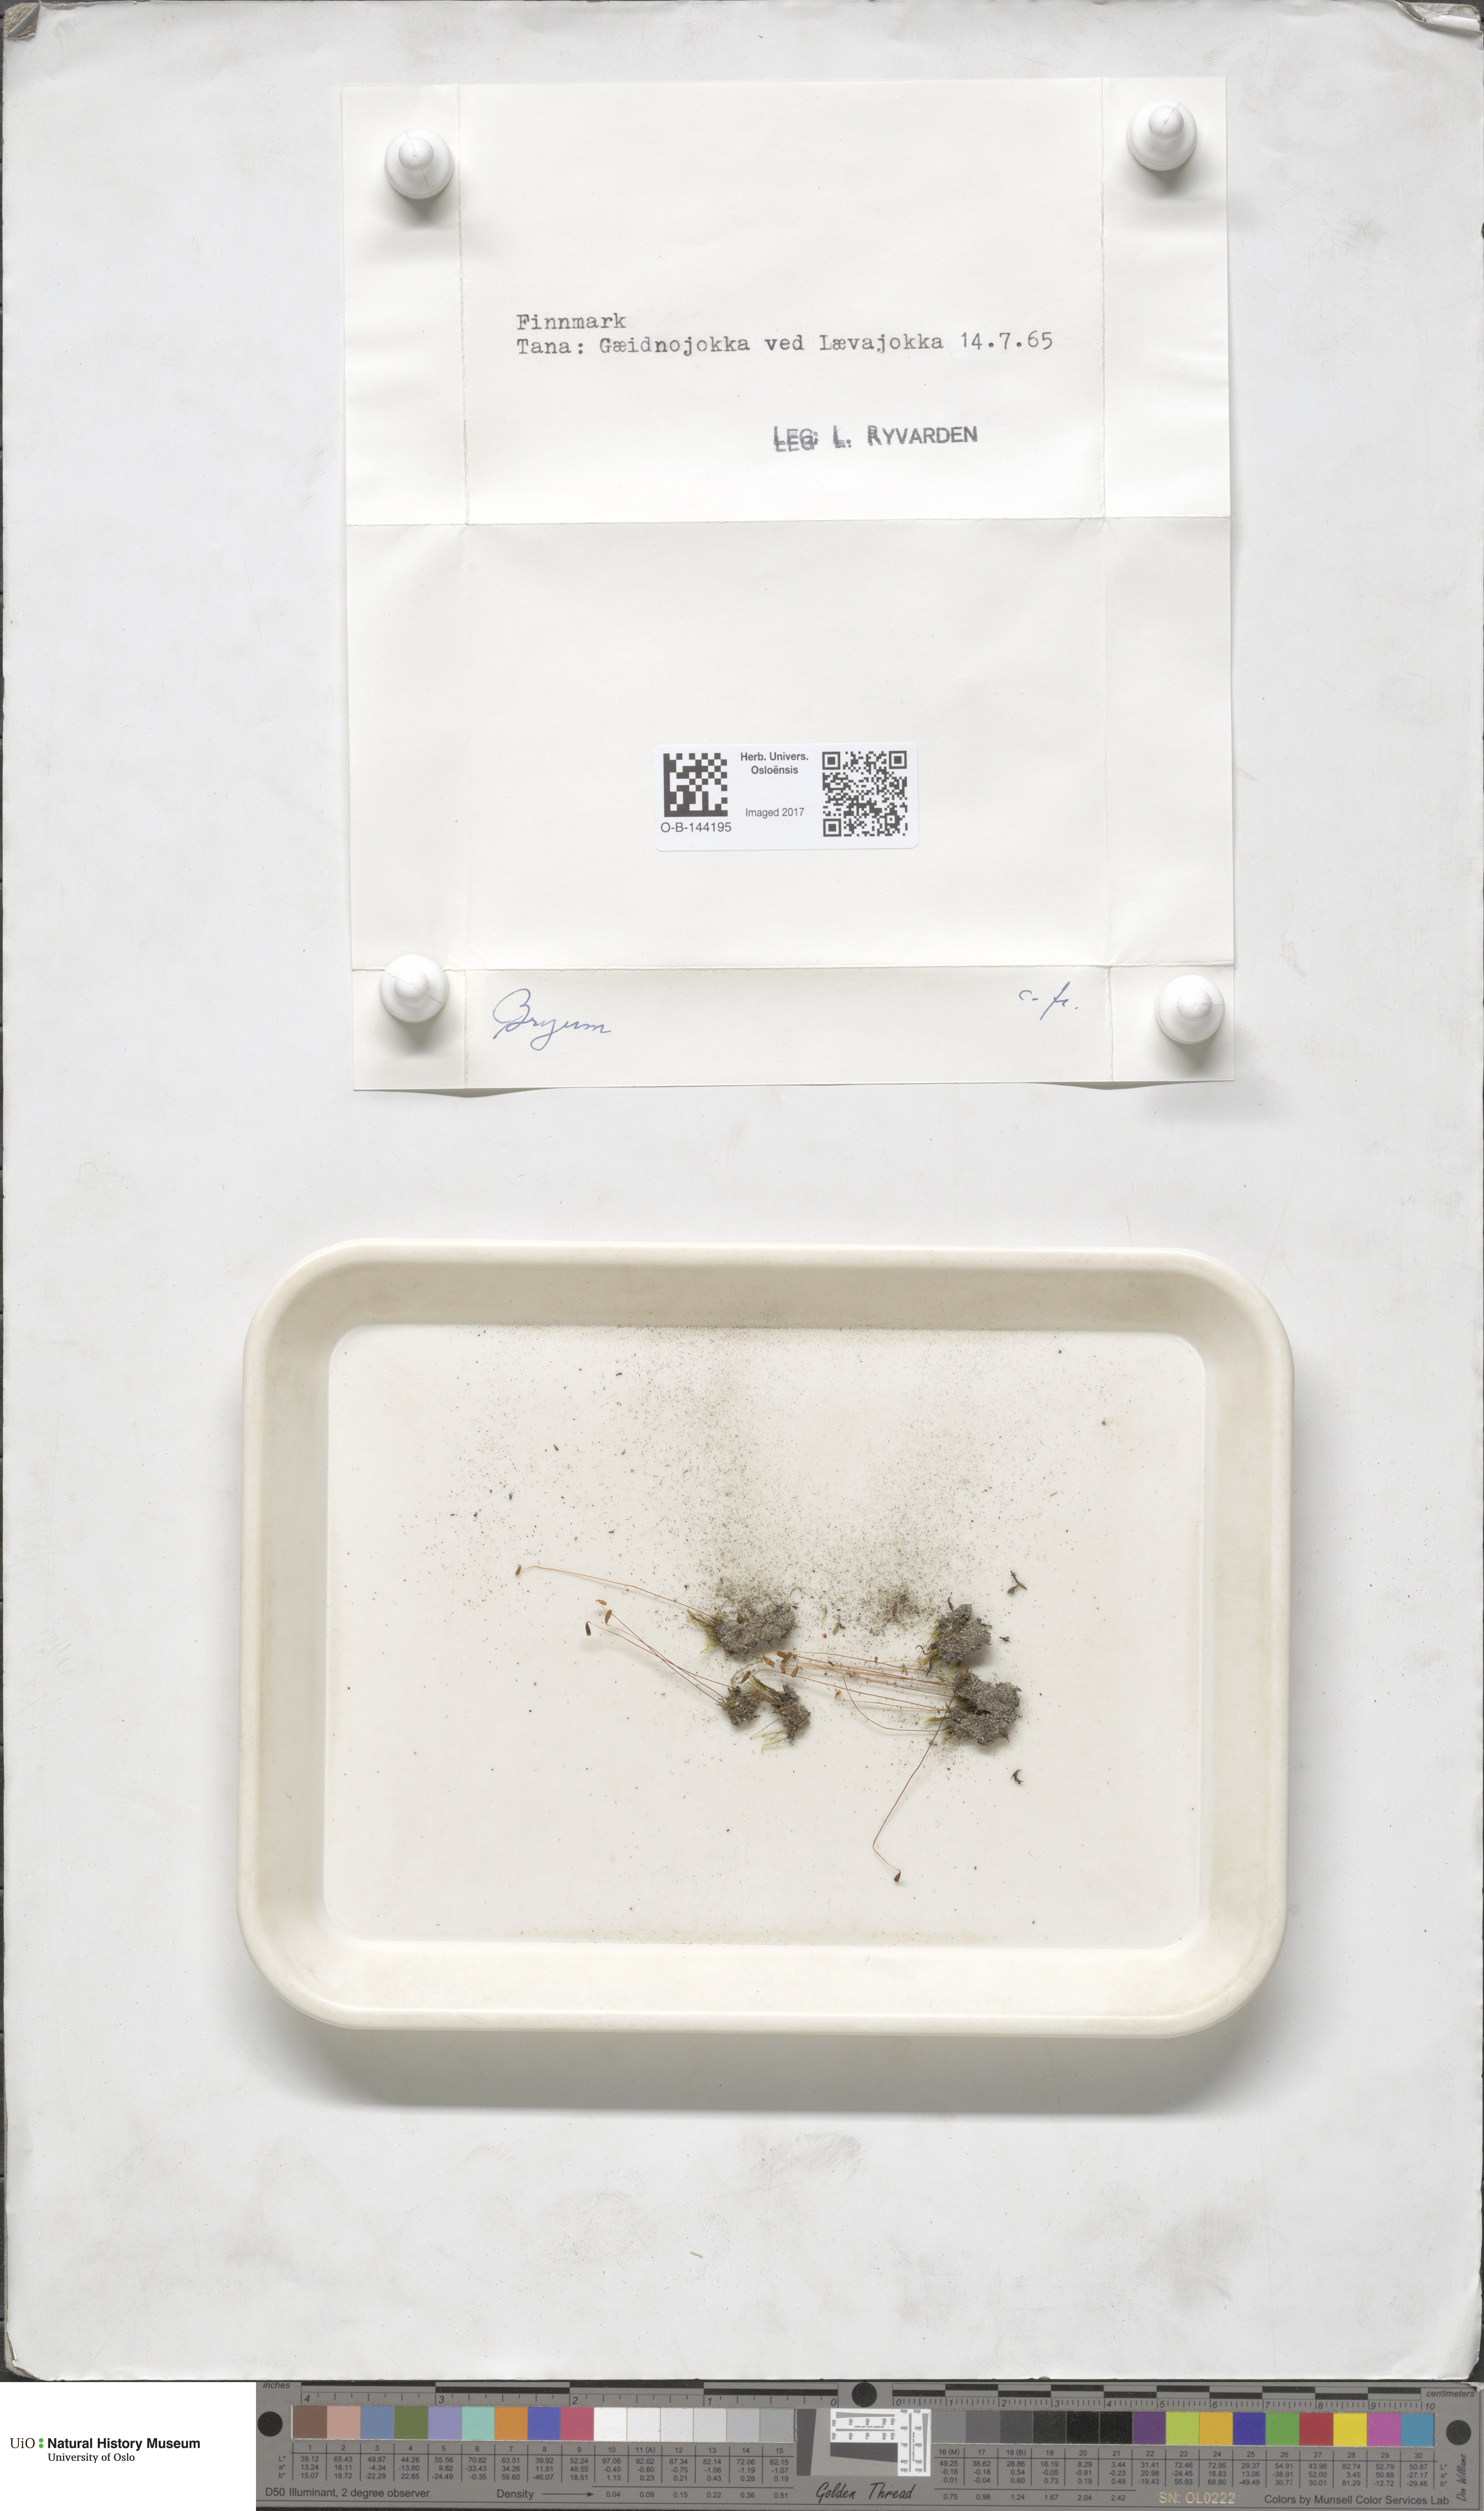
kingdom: Plantae
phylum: Bryophyta
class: Bryopsida
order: Bryales
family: Bryaceae
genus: Bryum
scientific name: Bryum
